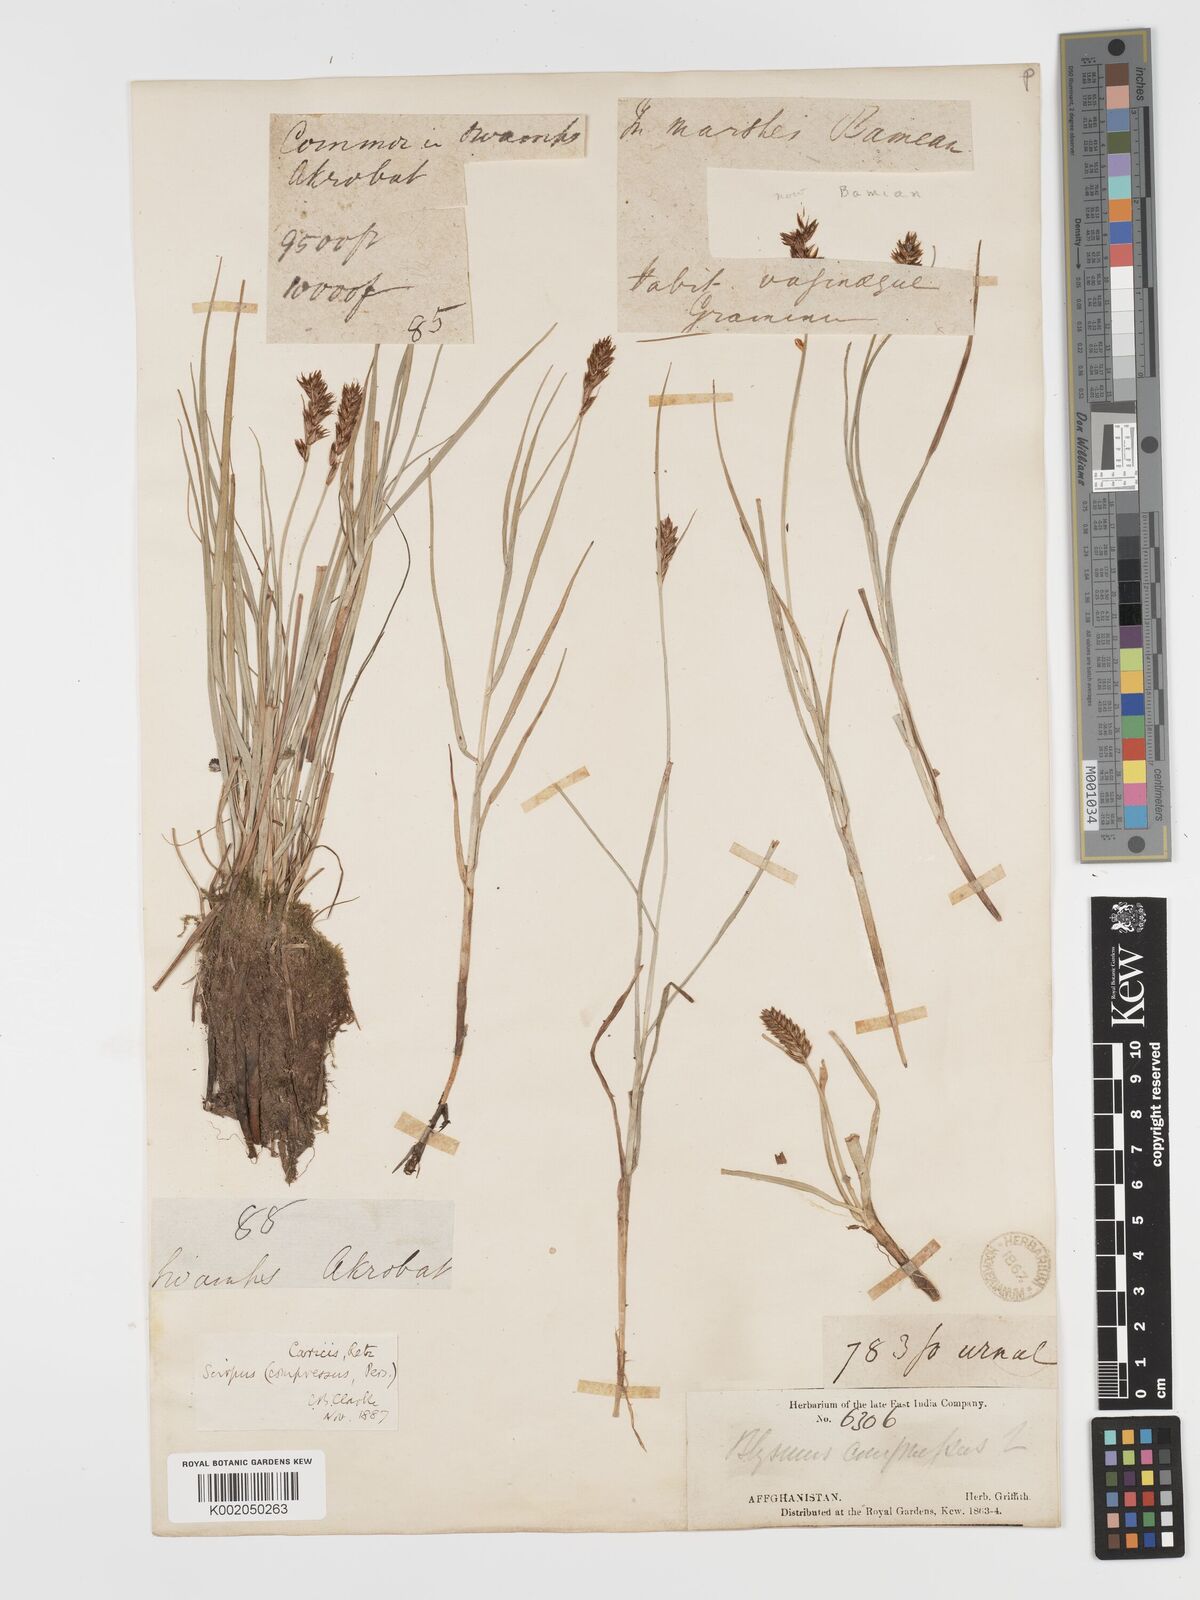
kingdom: Plantae
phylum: Tracheophyta
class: Liliopsida
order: Poales
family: Cyperaceae
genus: Blysmus
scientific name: Blysmus compressus
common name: Flat-sedge
